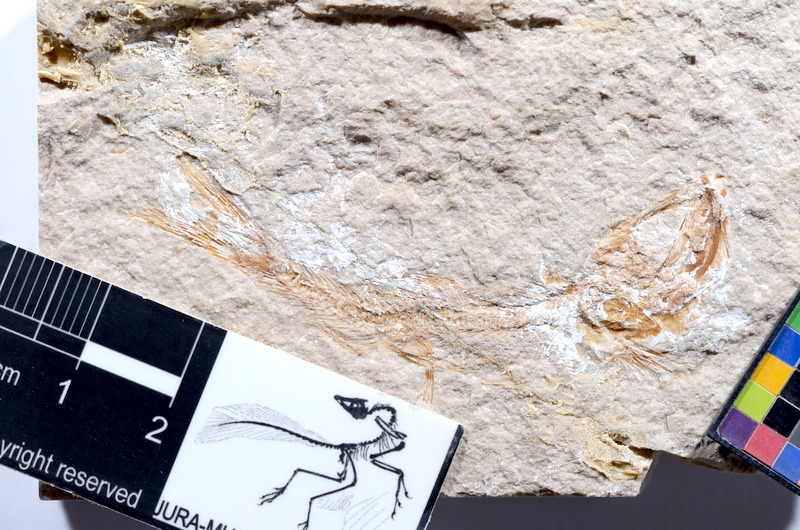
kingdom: Animalia
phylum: Chordata
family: Ascalaboidae
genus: Tharsis
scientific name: Tharsis dubius
